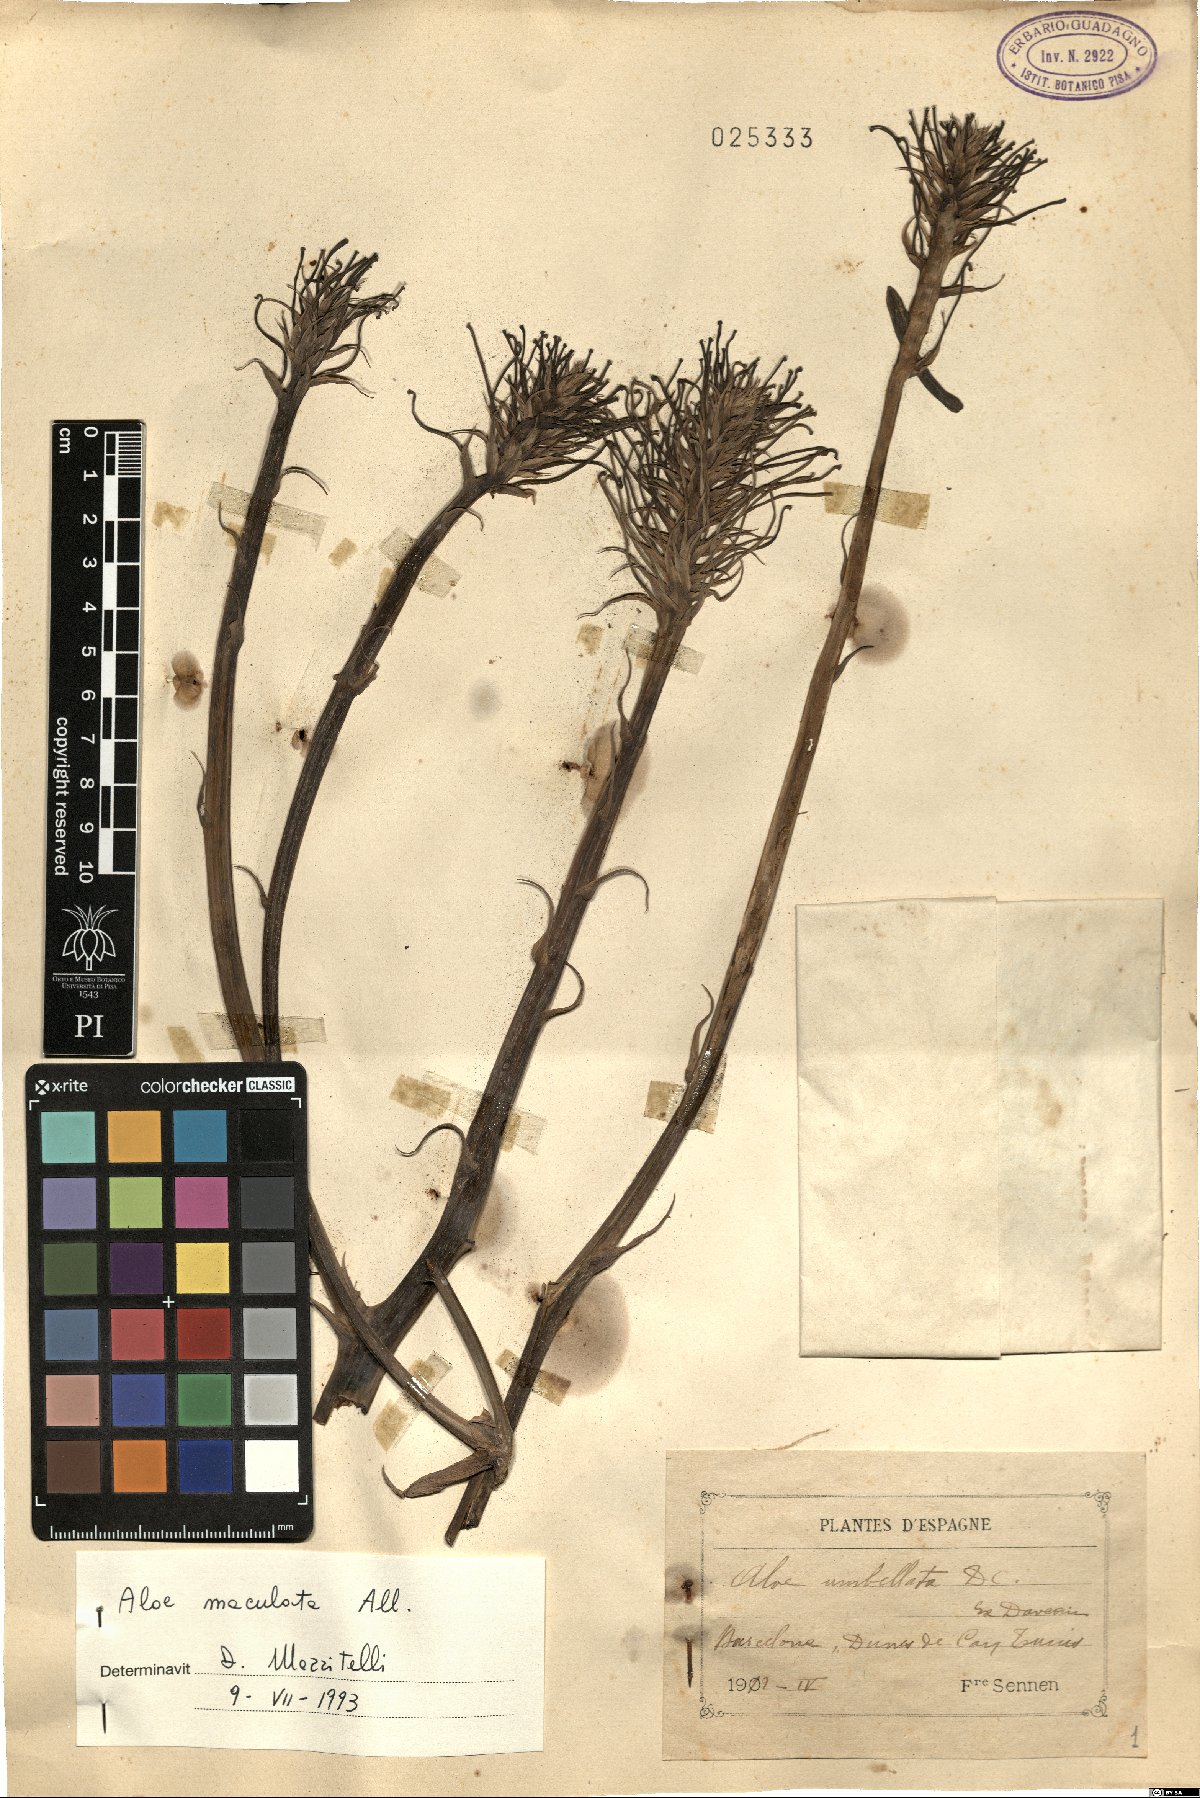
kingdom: Plantae
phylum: Tracheophyta
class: Liliopsida
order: Asparagales
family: Asphodelaceae
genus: Aloe
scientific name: Aloe maculata
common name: Broadleaf aloe
